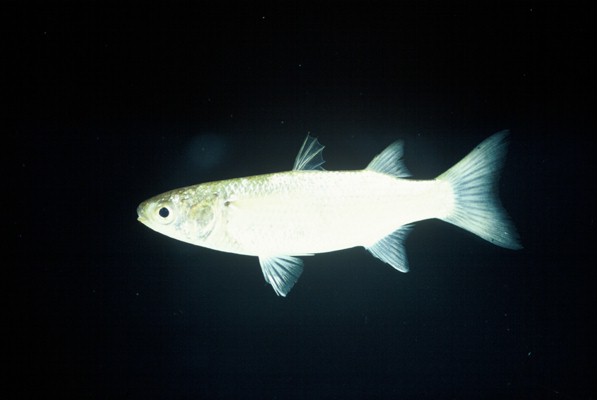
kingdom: Animalia
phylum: Chordata
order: Mugiliformes
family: Mugilidae
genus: Osteomugil
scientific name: Osteomugil robustus
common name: Robust mullet
